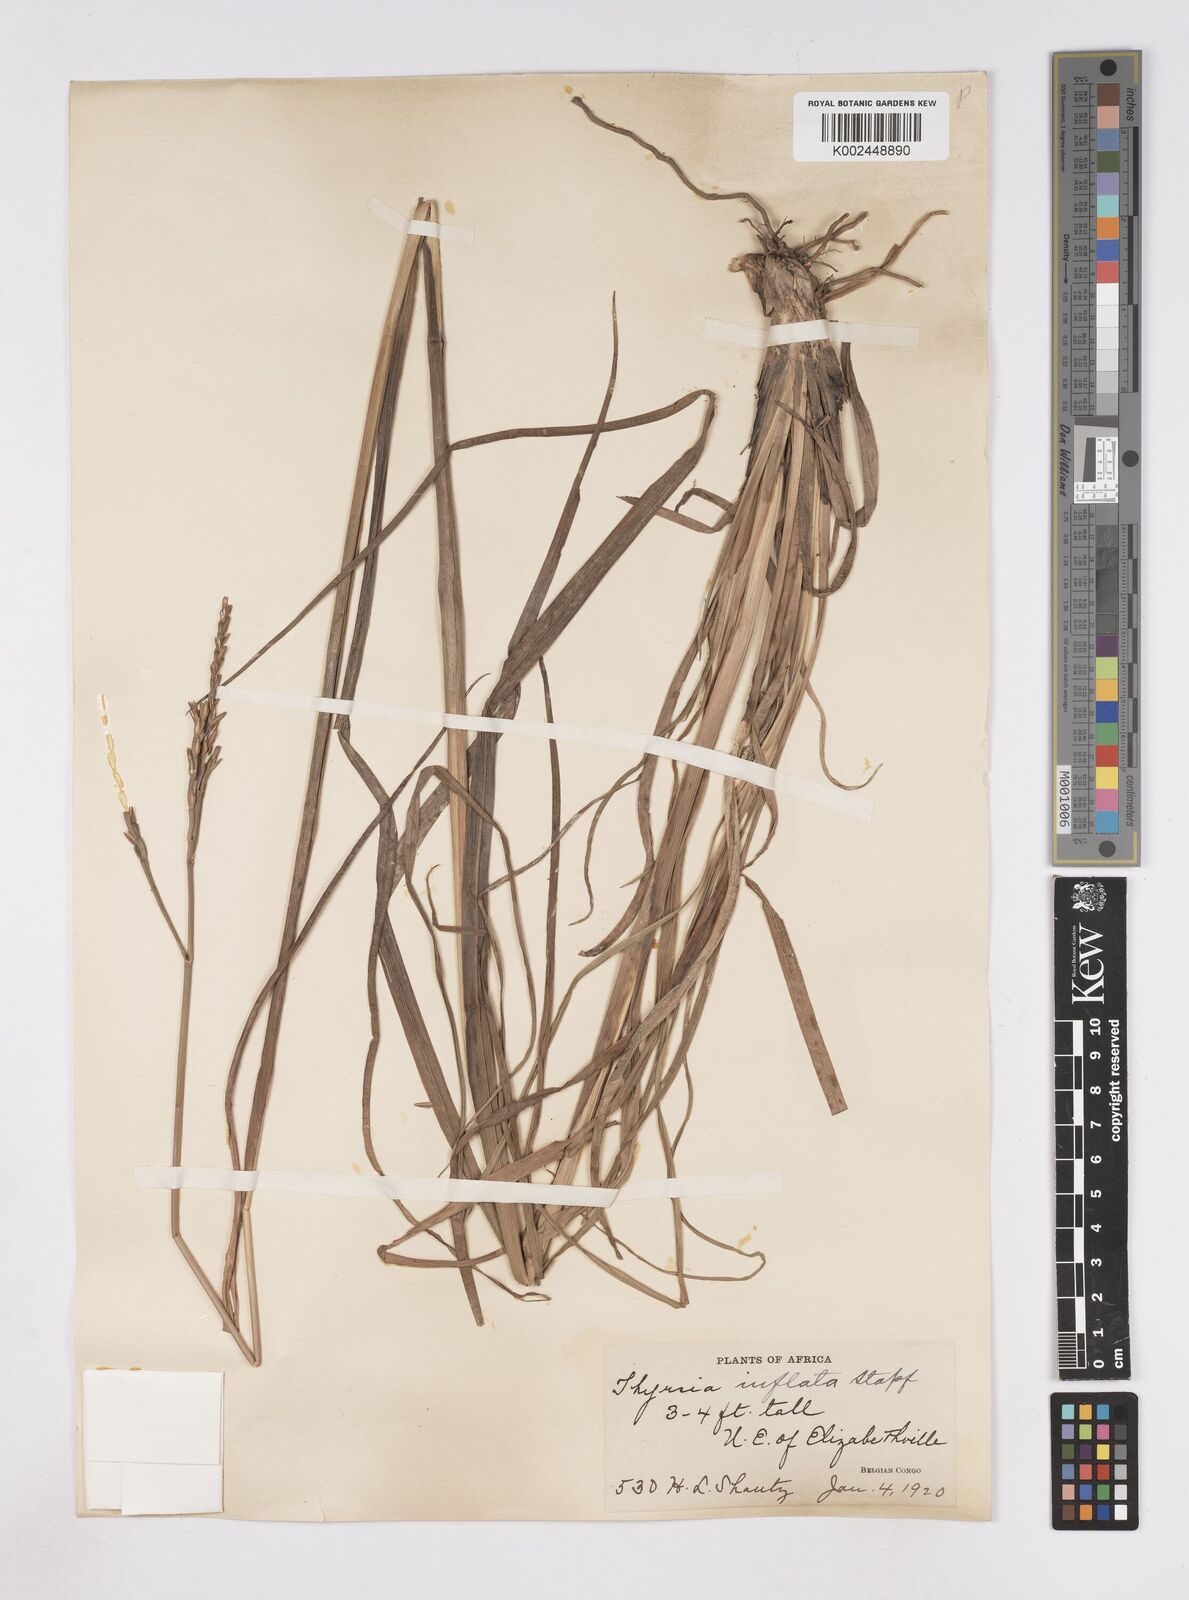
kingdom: Plantae
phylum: Tracheophyta
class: Liliopsida
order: Poales
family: Poaceae
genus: Thyrsia
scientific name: Thyrsia huillensis
